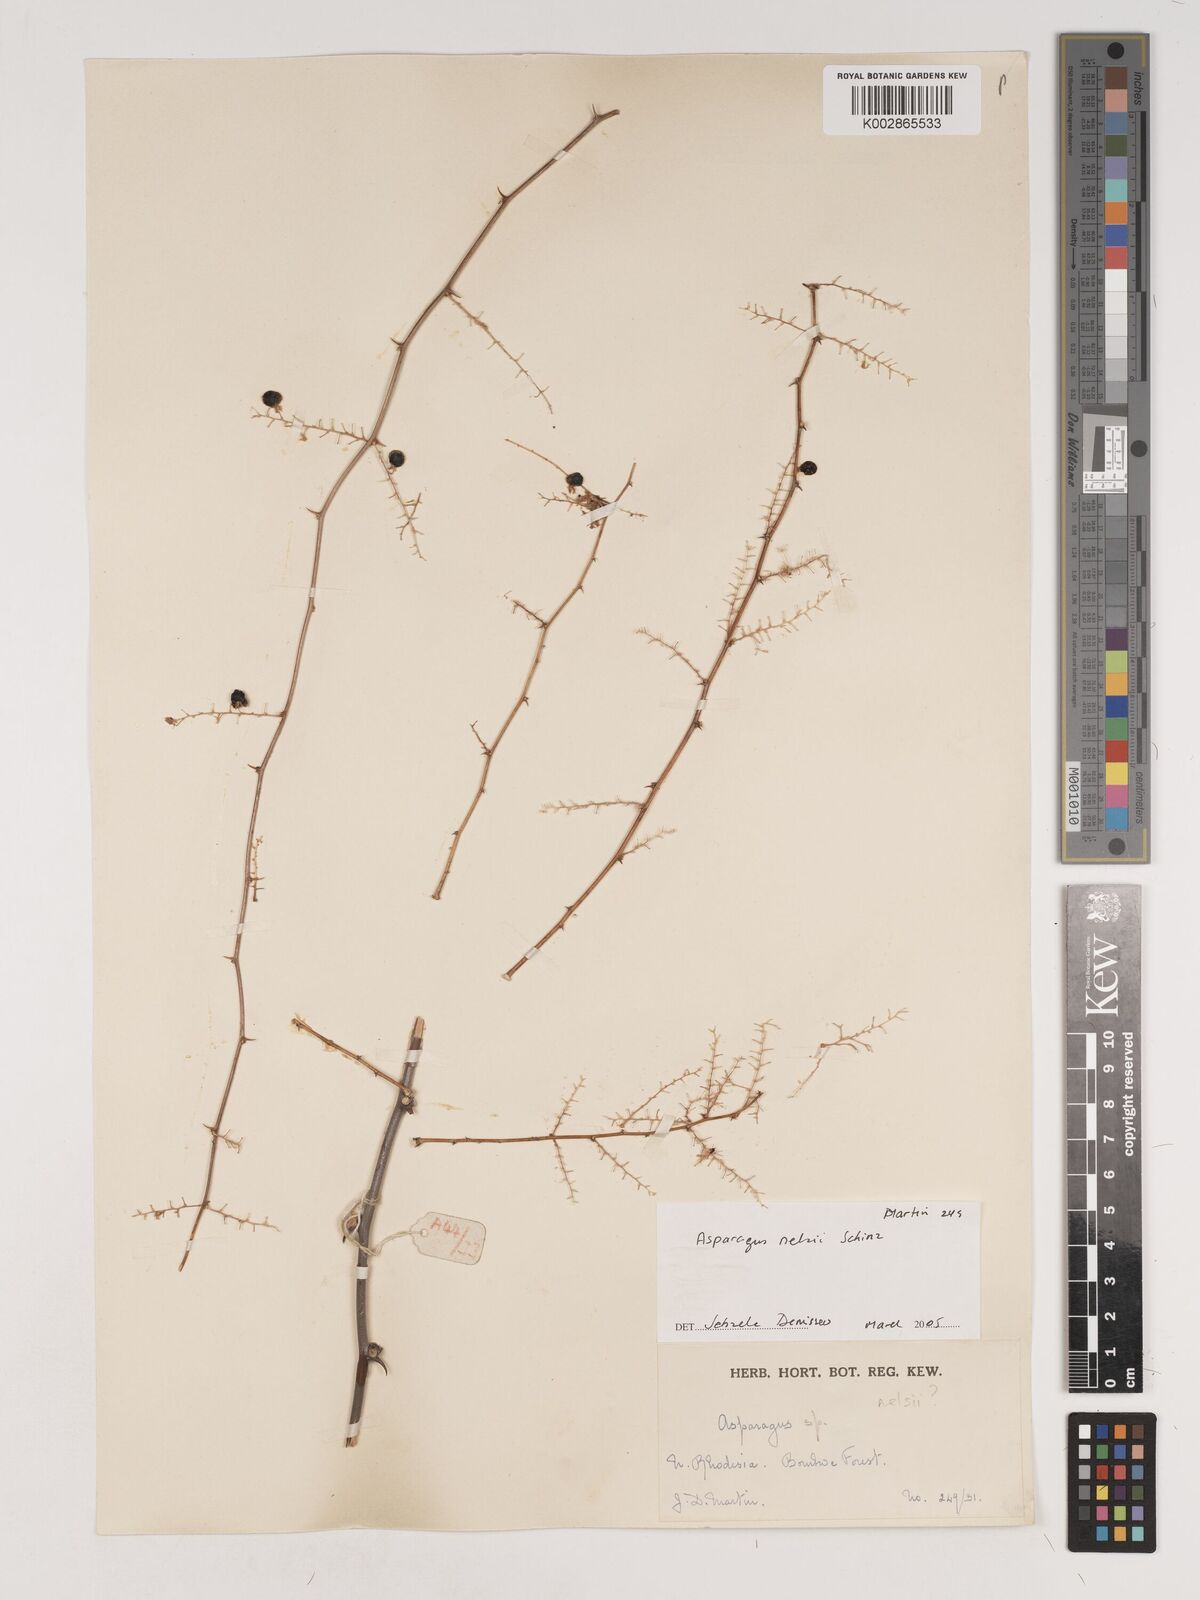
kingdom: Plantae
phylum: Tracheophyta
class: Liliopsida
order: Asparagales
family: Asparagaceae
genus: Asparagus
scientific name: Asparagus nelsii
